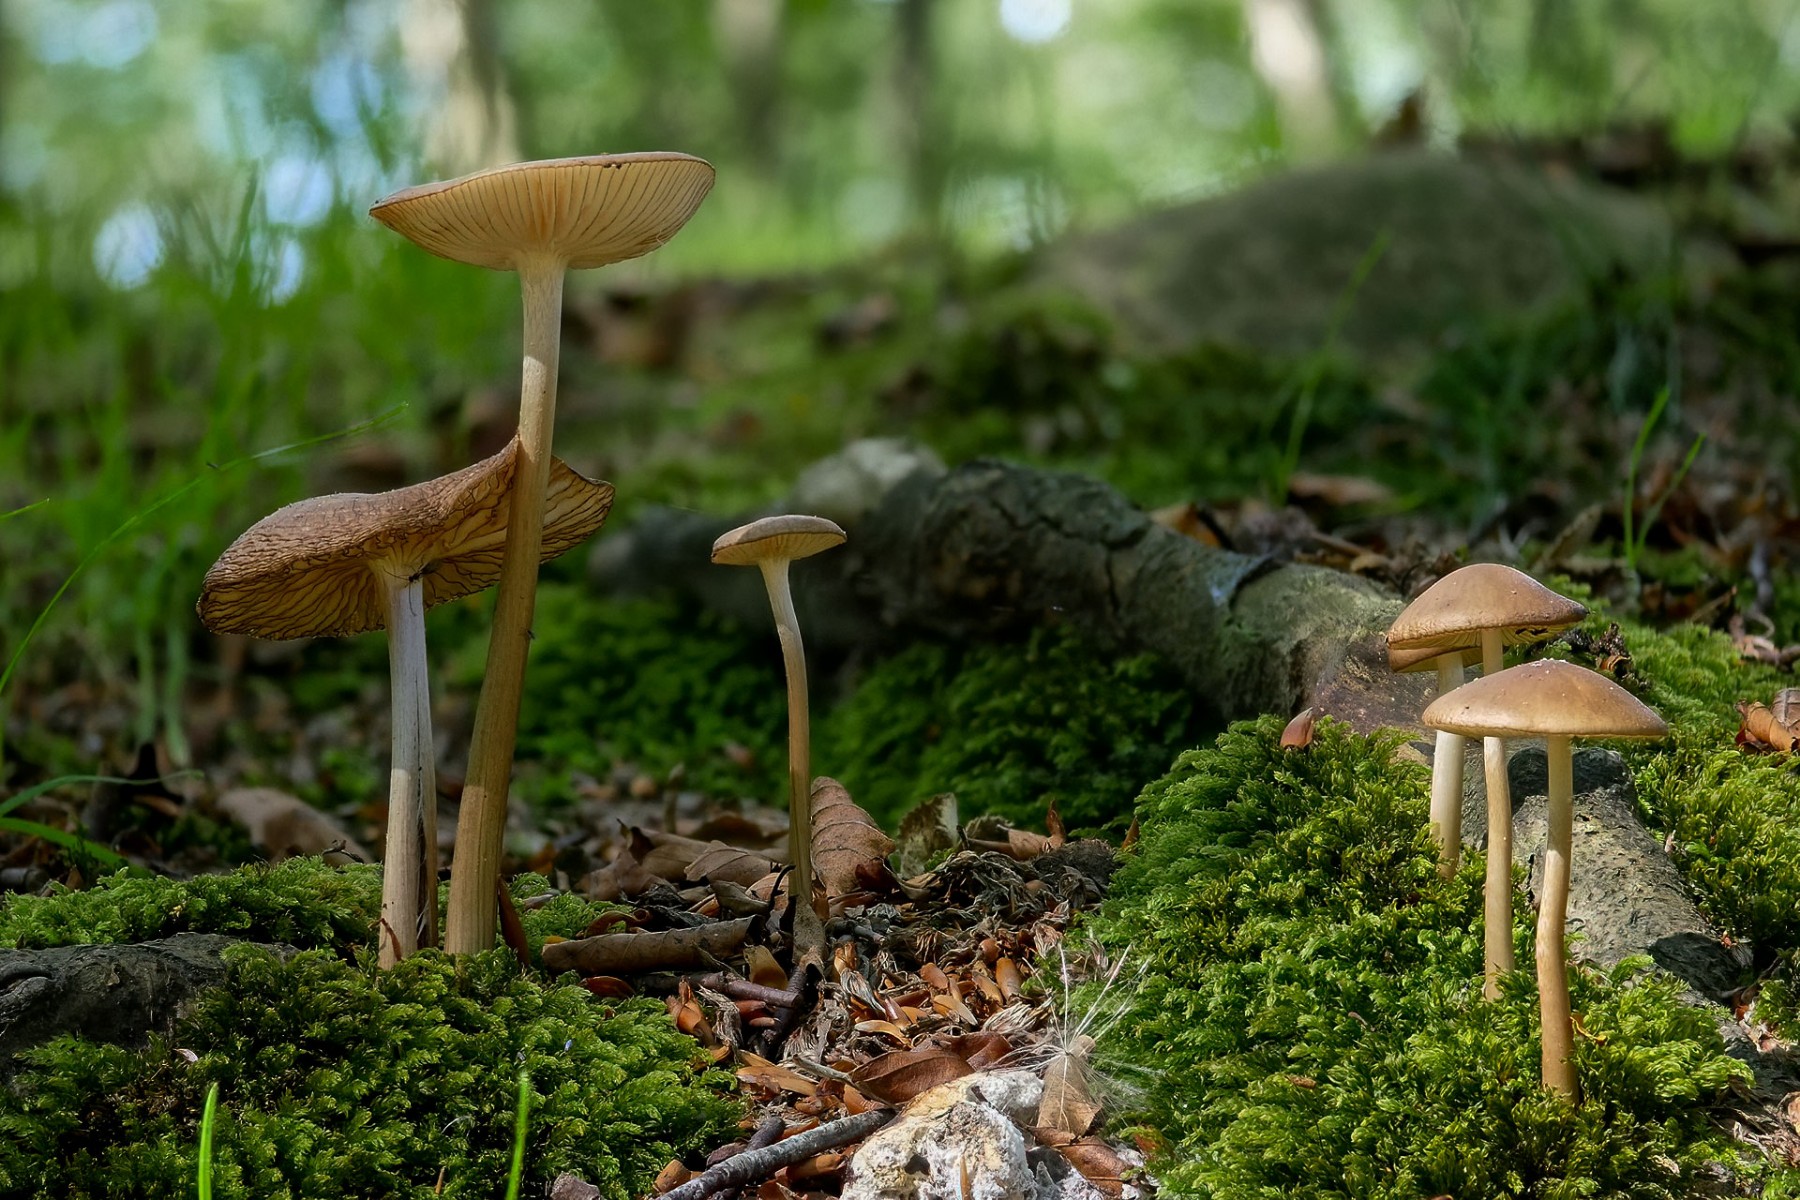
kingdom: Fungi
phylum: Basidiomycota
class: Agaricomycetes
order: Agaricales
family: Physalacriaceae
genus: Hymenopellis
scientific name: Hymenopellis radicata
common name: almindelig pælerodshat
